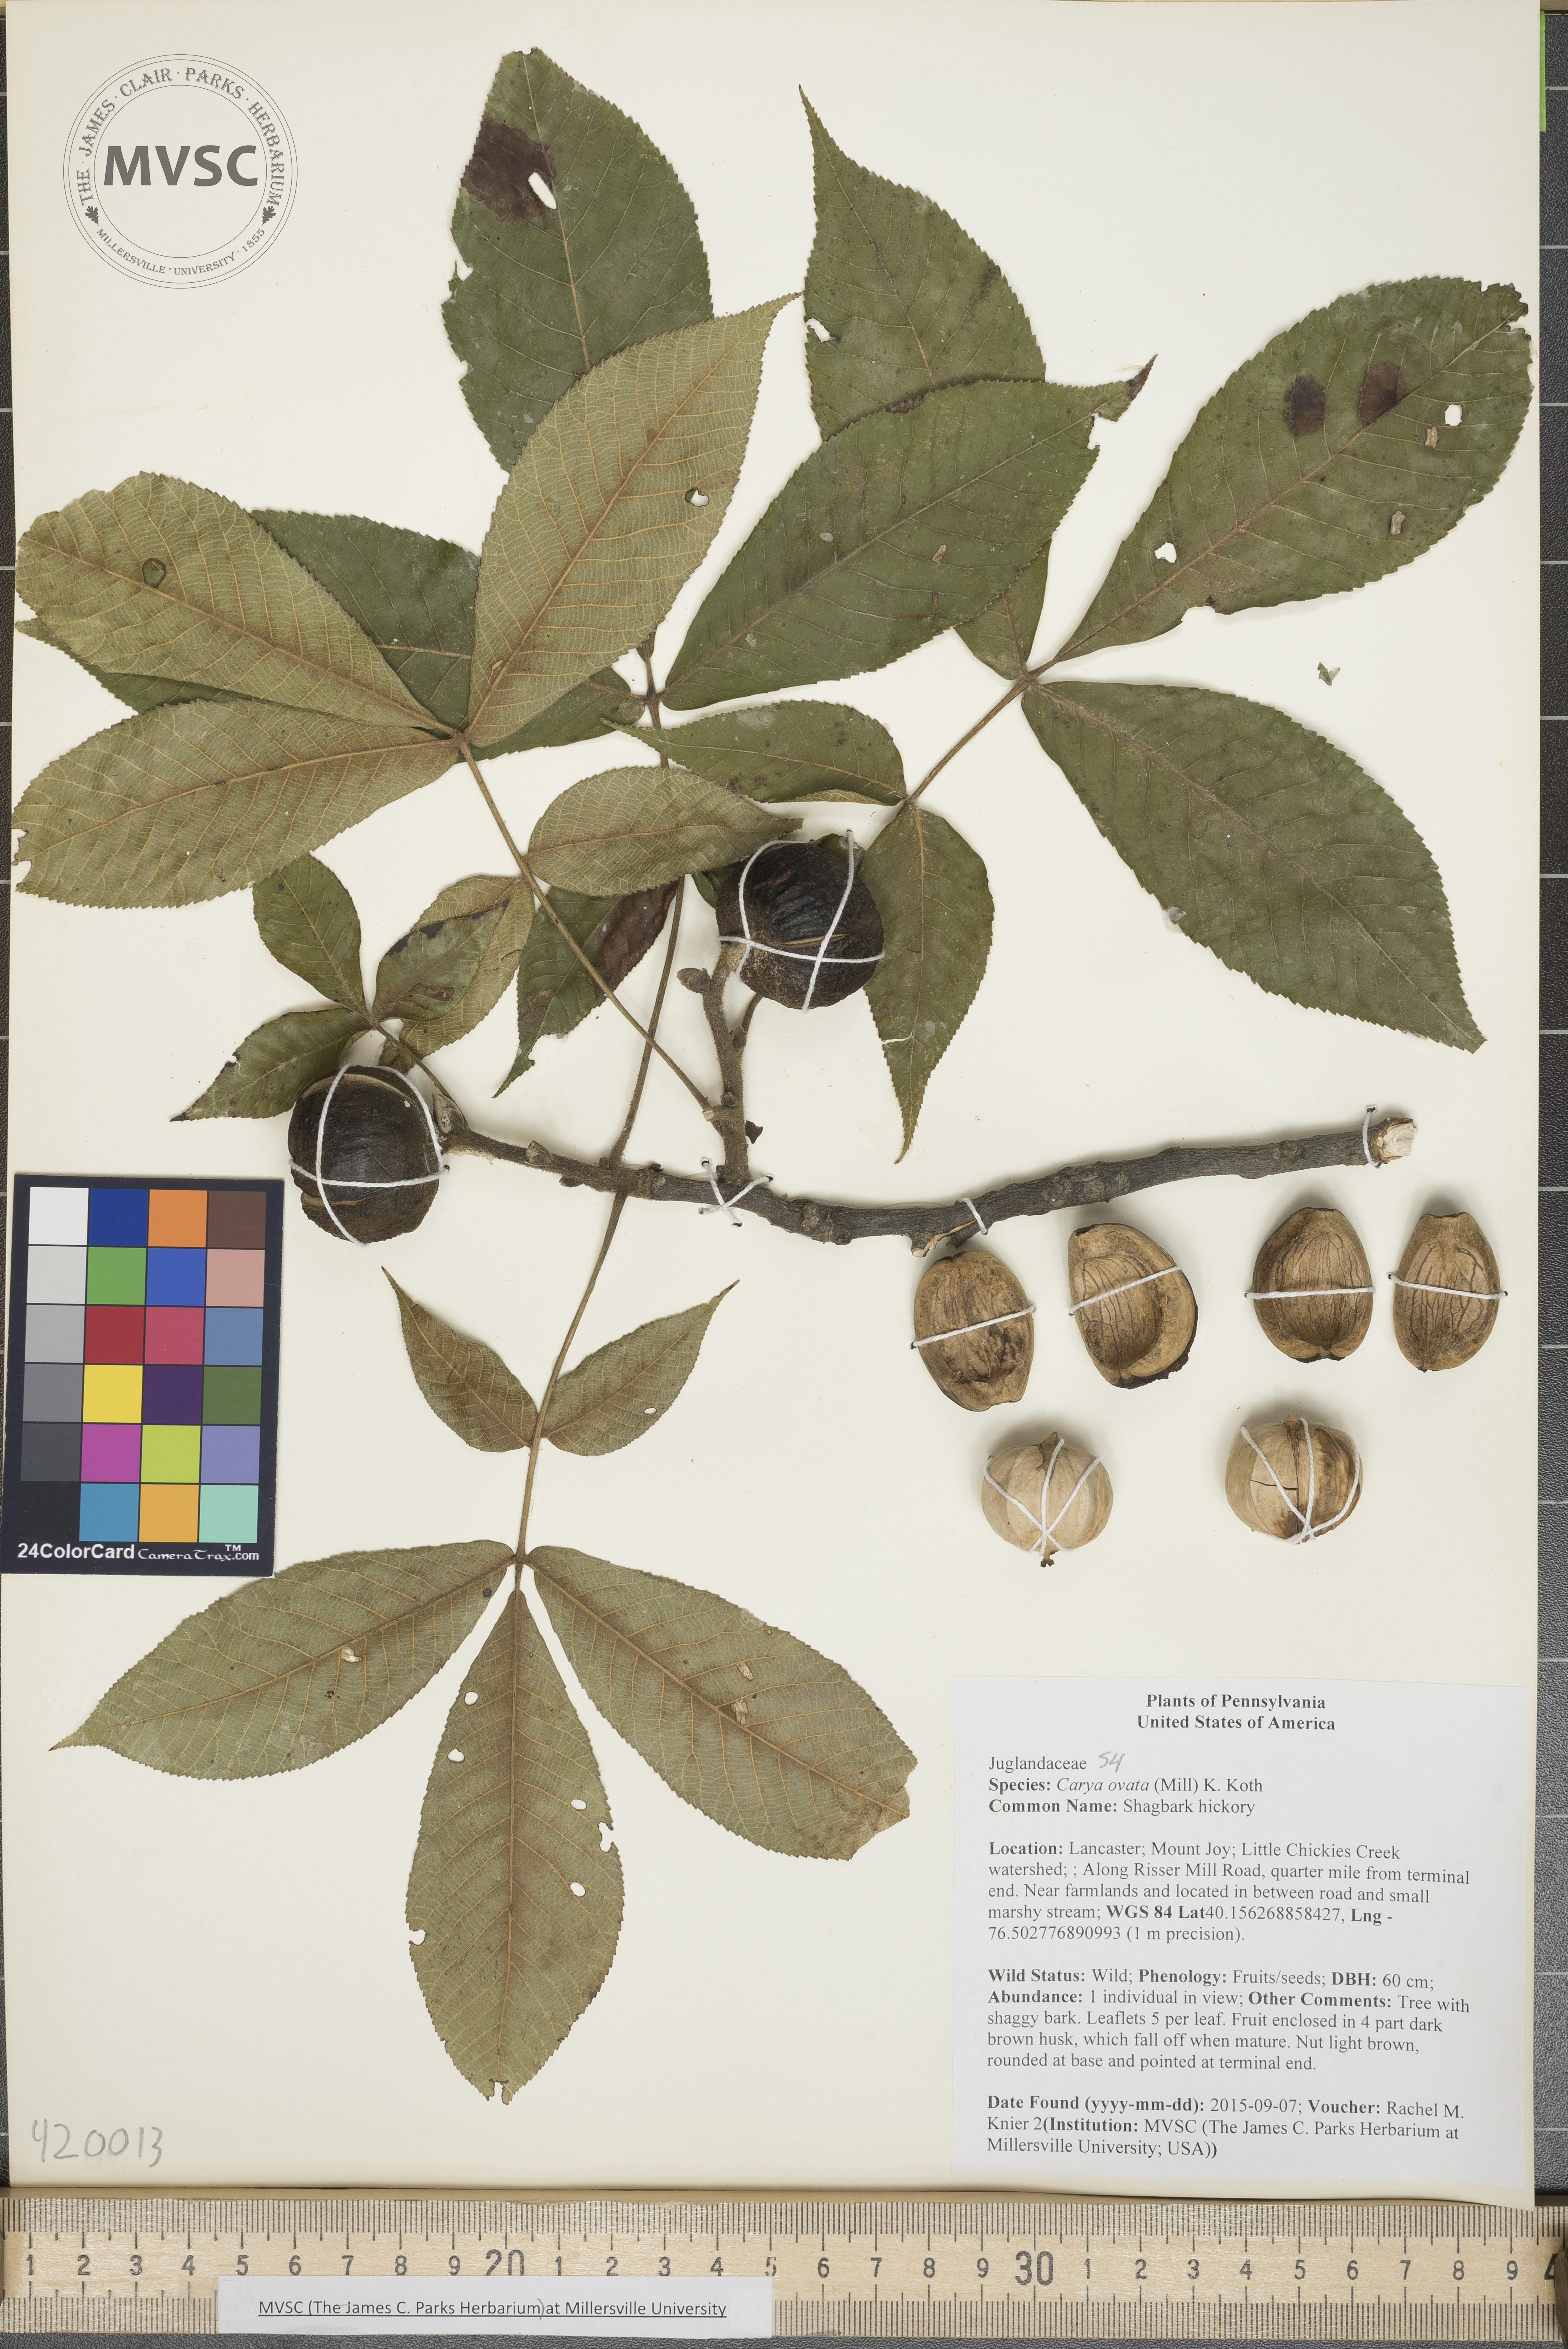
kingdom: Plantae
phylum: Tracheophyta
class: Magnoliopsida
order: Fagales
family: Juglandaceae
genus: Carya
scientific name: Carya ovata
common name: Shagbark hickory
